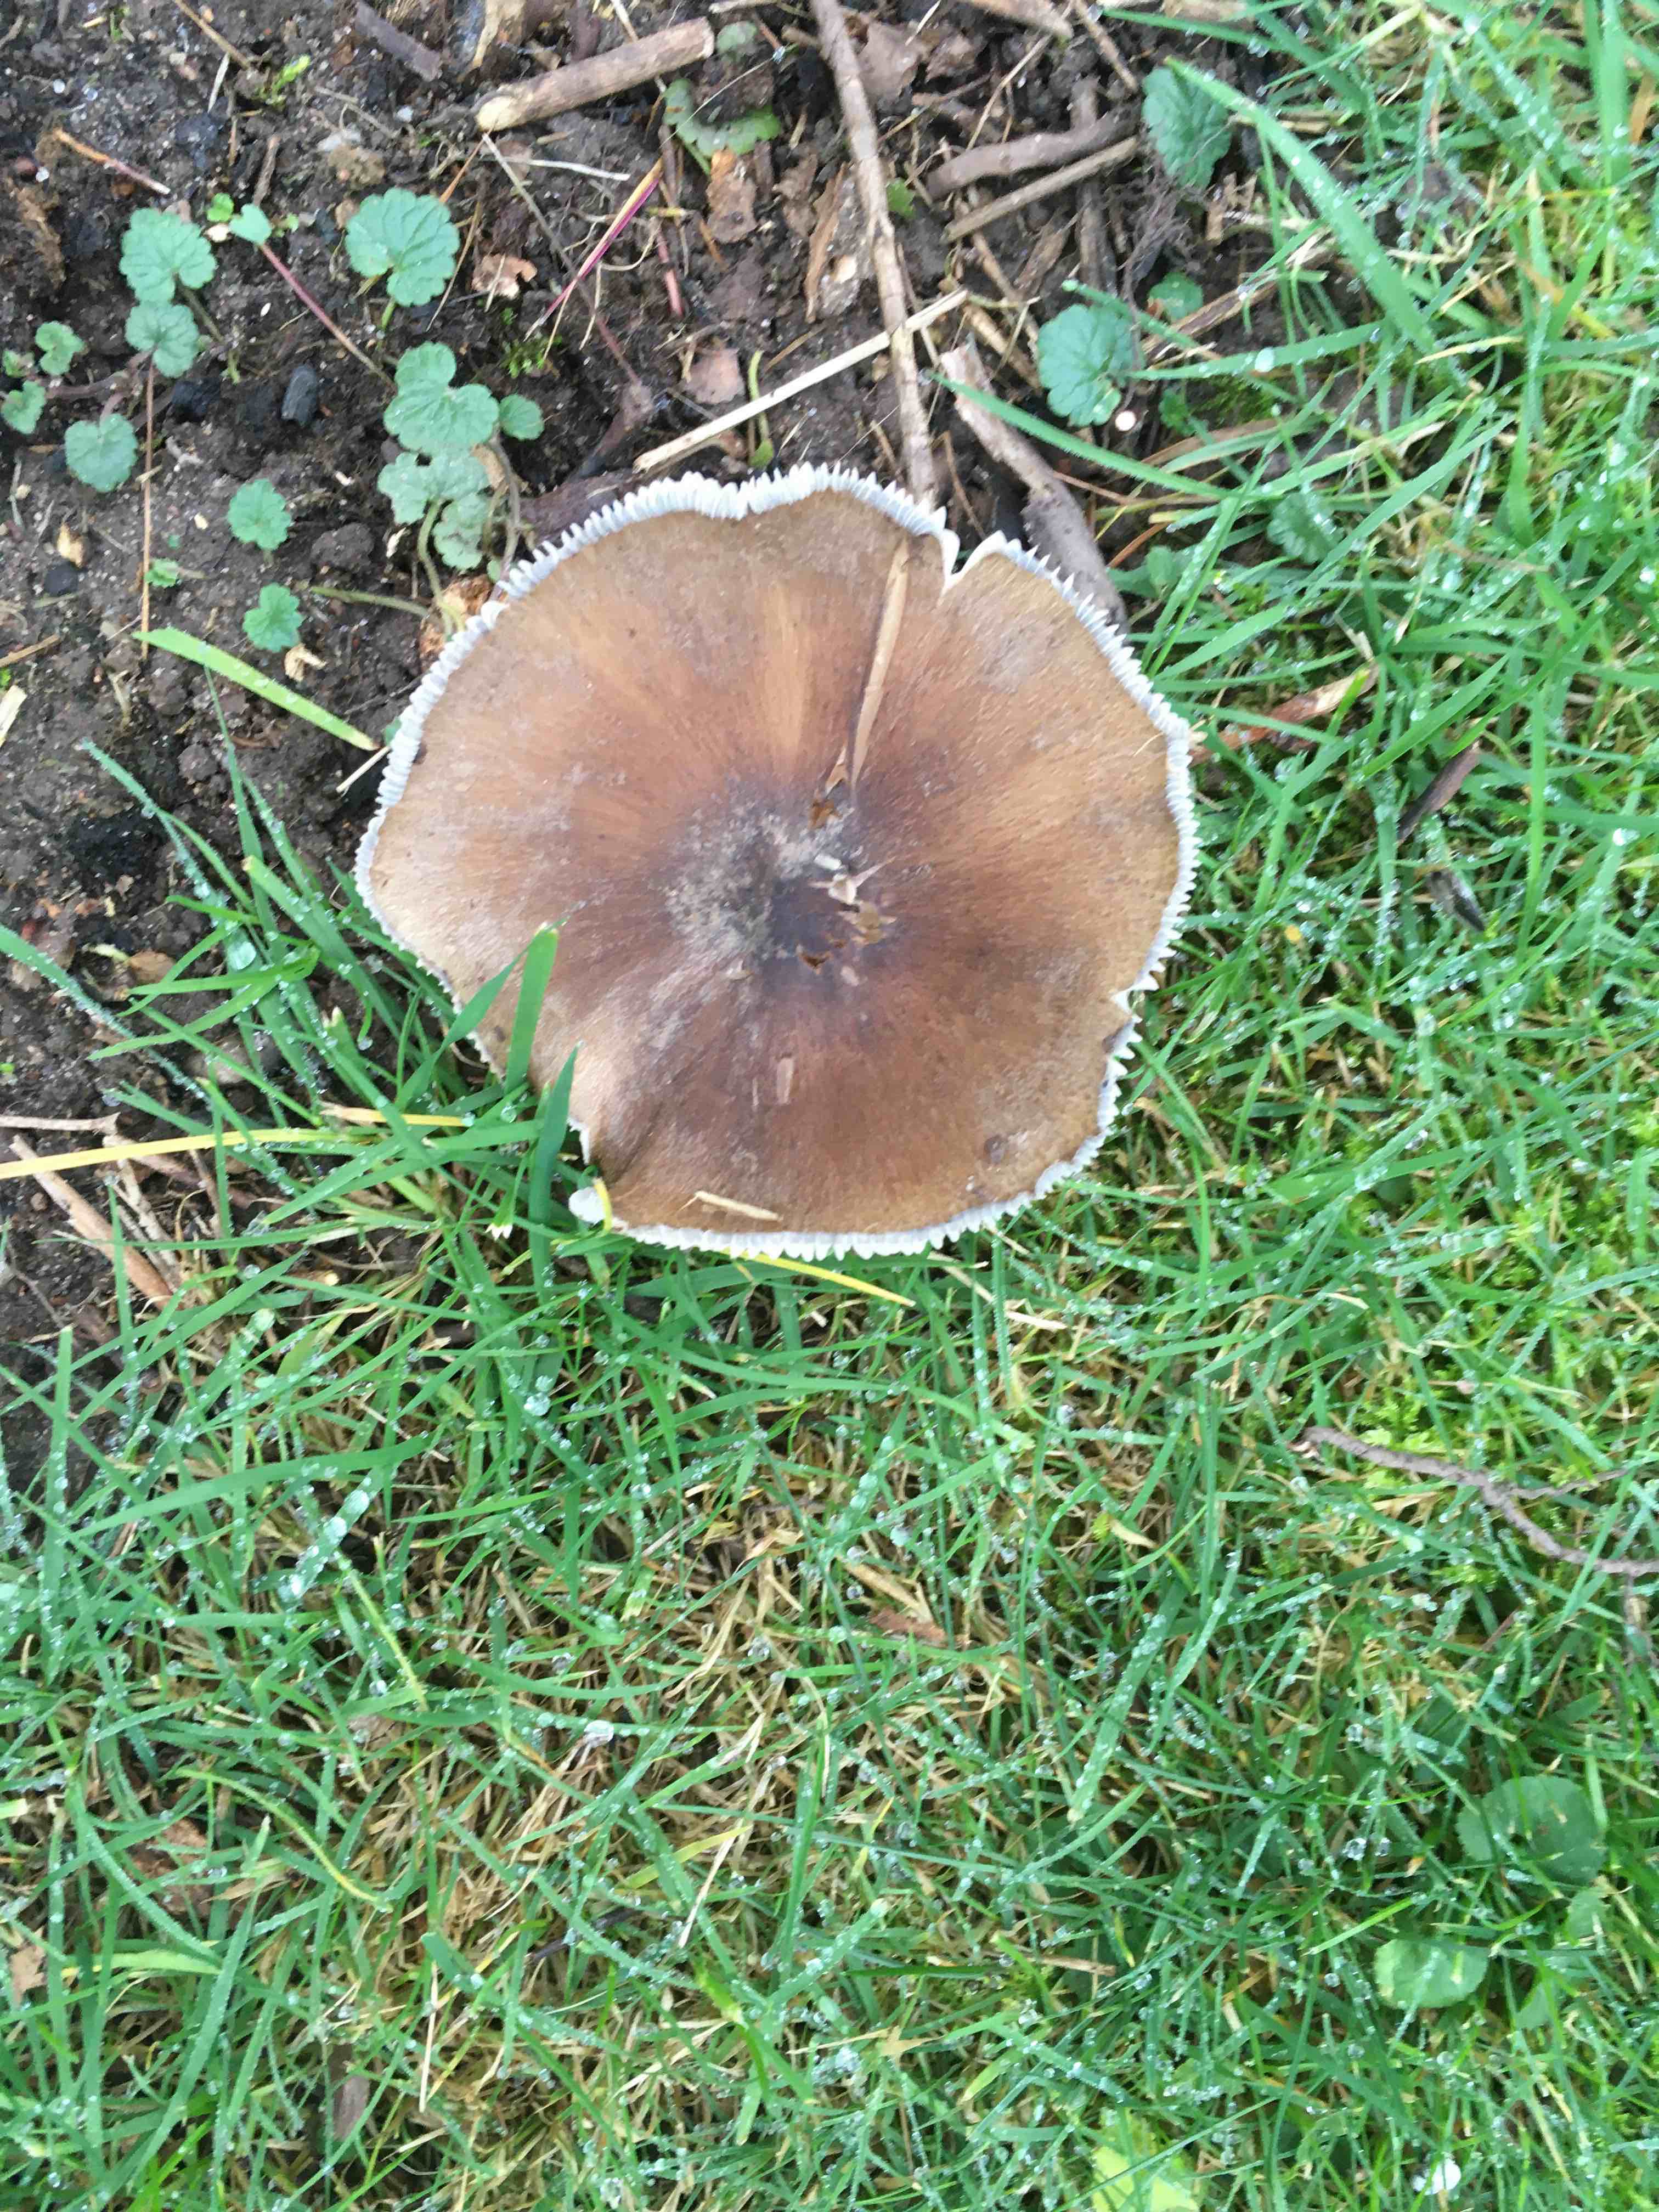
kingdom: Fungi
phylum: Basidiomycota
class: Agaricomycetes
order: Agaricales
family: Tricholomataceae
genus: Melanoleuca
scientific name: Melanoleuca
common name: munkehat
